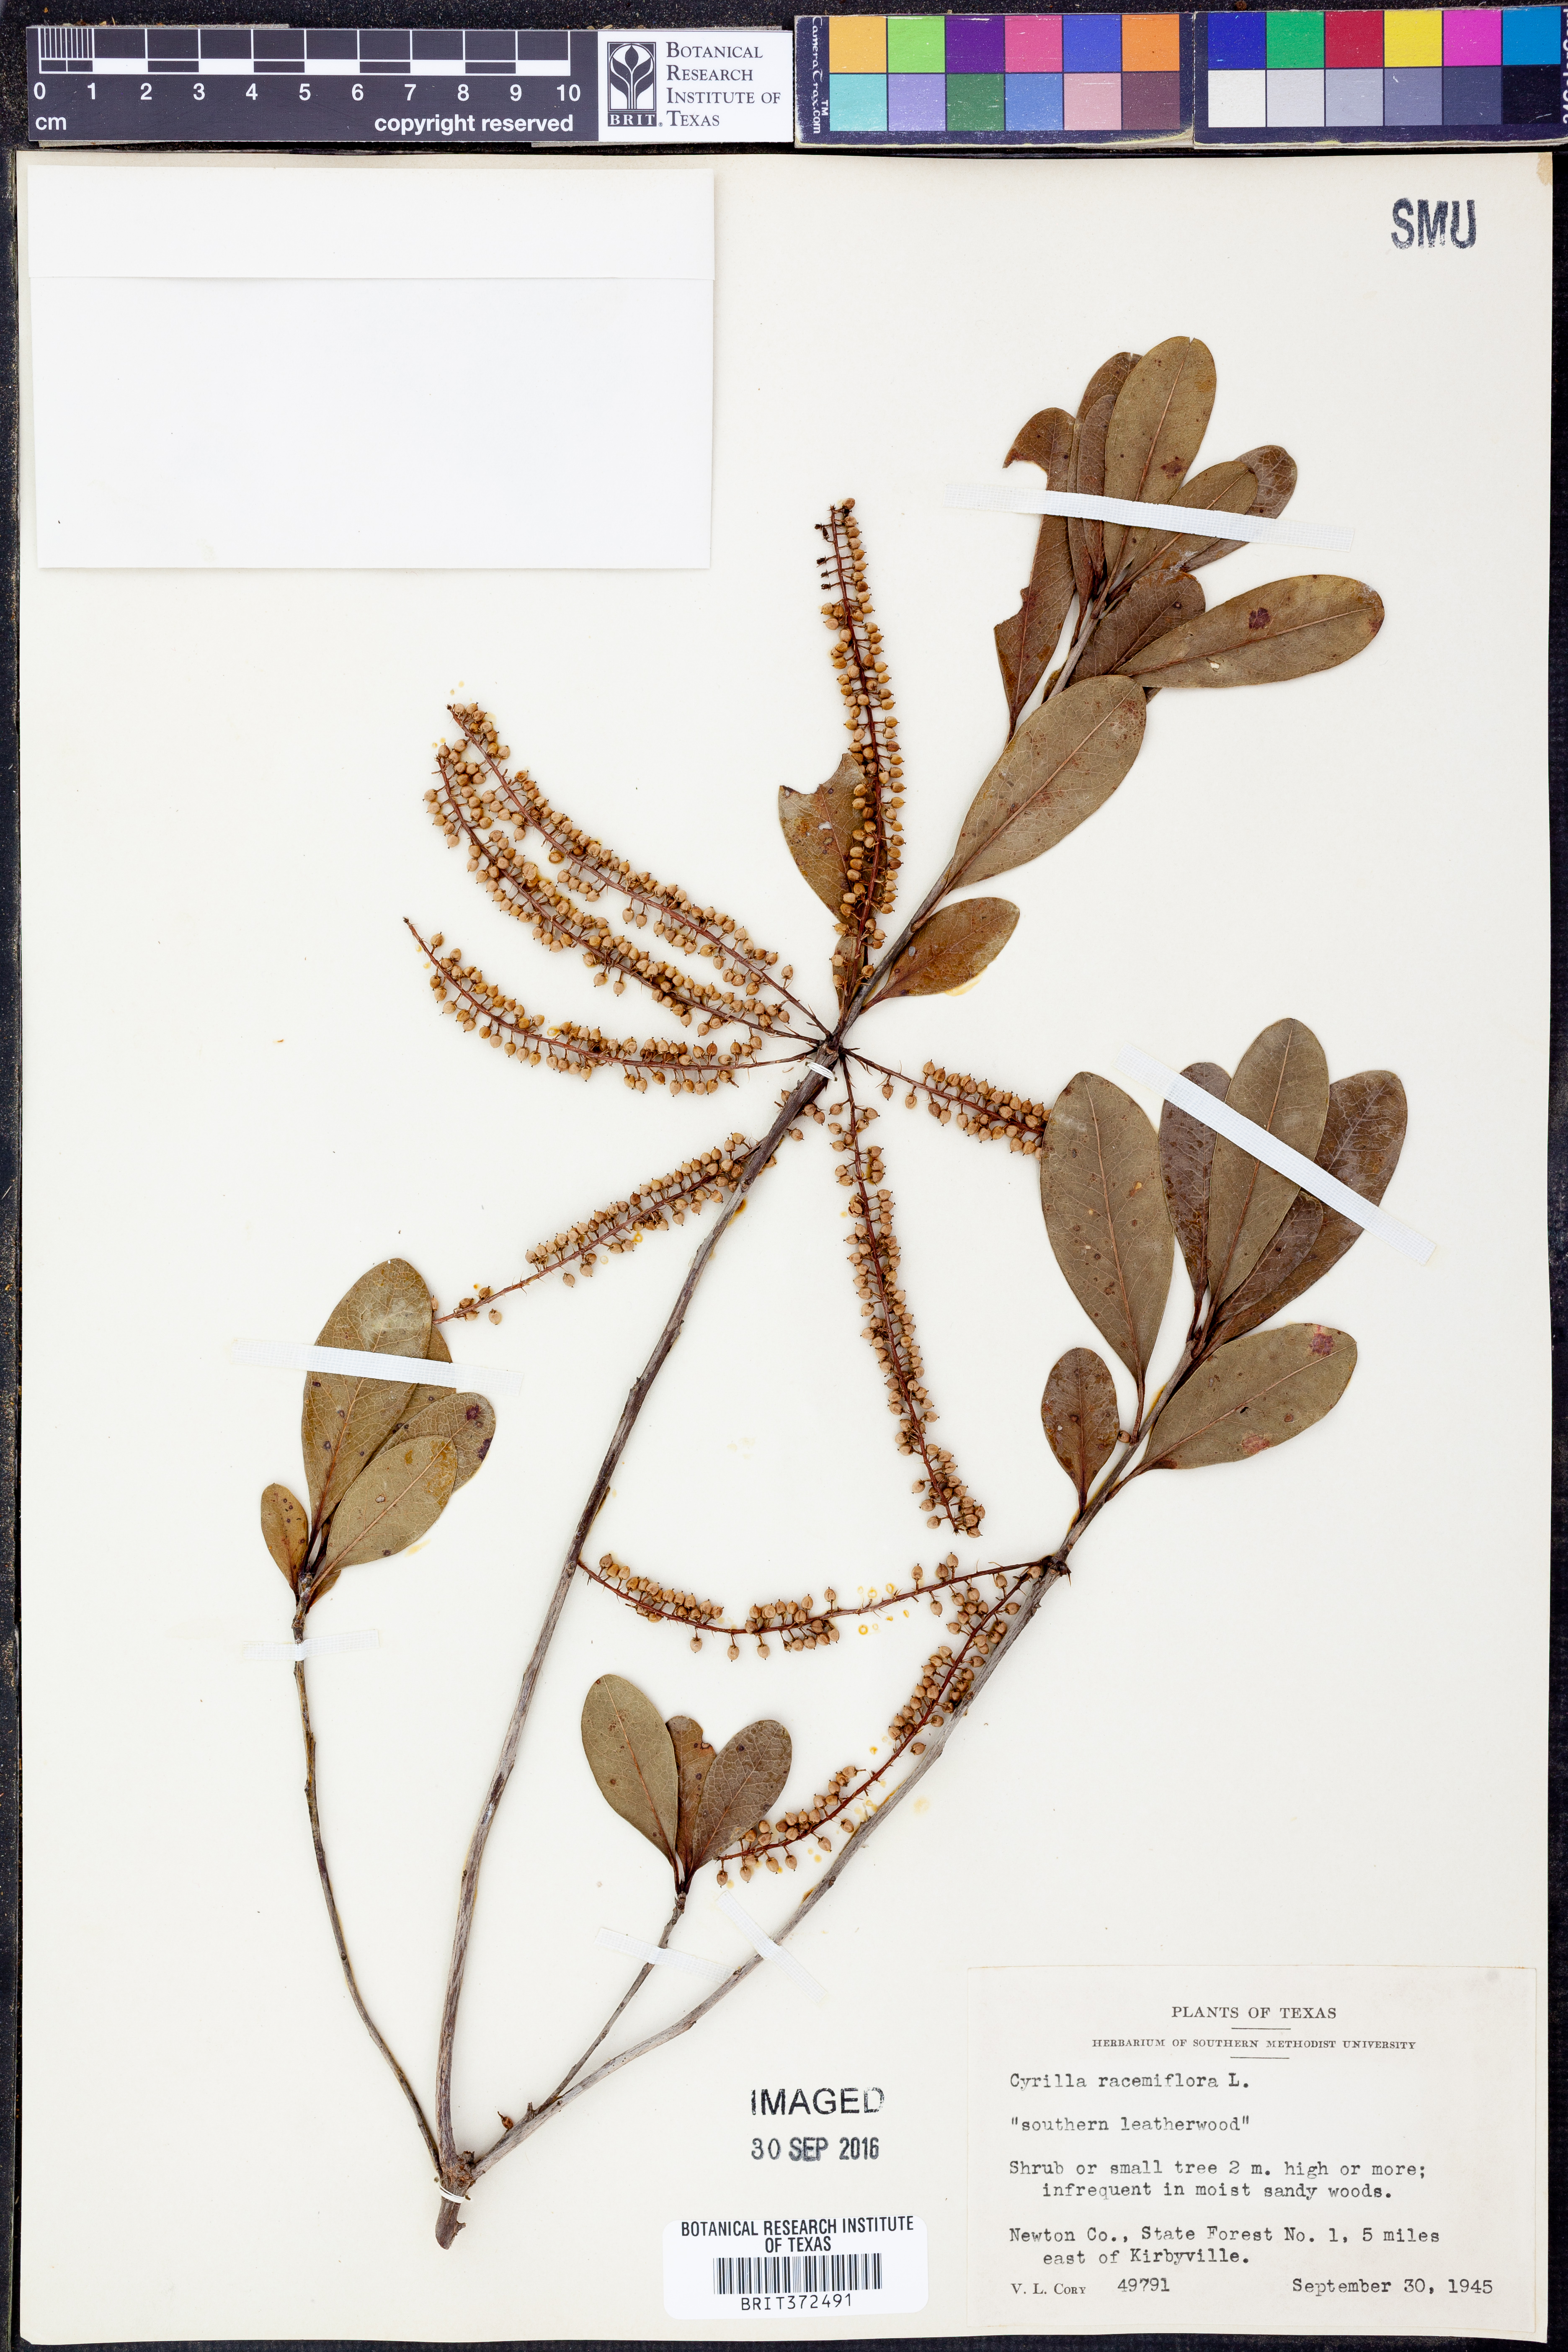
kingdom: Plantae
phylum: Tracheophyta
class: Magnoliopsida
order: Ericales
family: Cyrillaceae
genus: Cyrilla
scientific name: Cyrilla racemiflora
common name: Black titi
